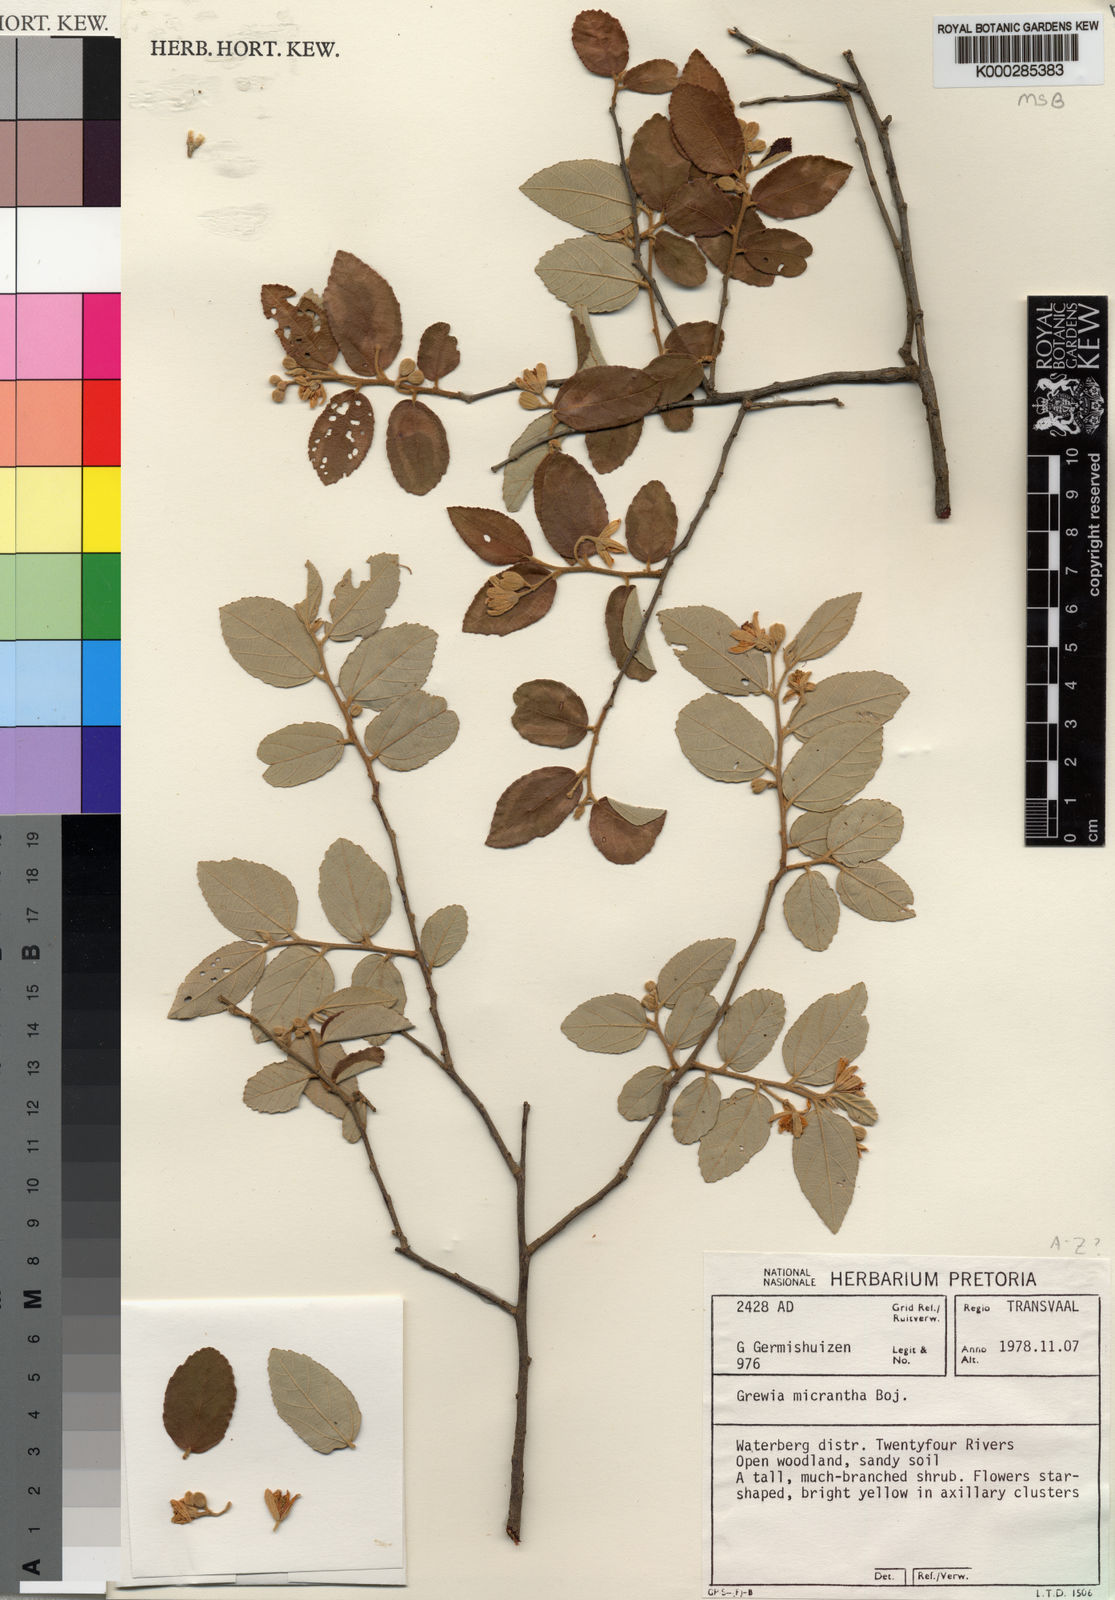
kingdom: Plantae
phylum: Tracheophyta
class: Magnoliopsida
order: Malvales
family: Malvaceae
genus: Grewia
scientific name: Grewia
